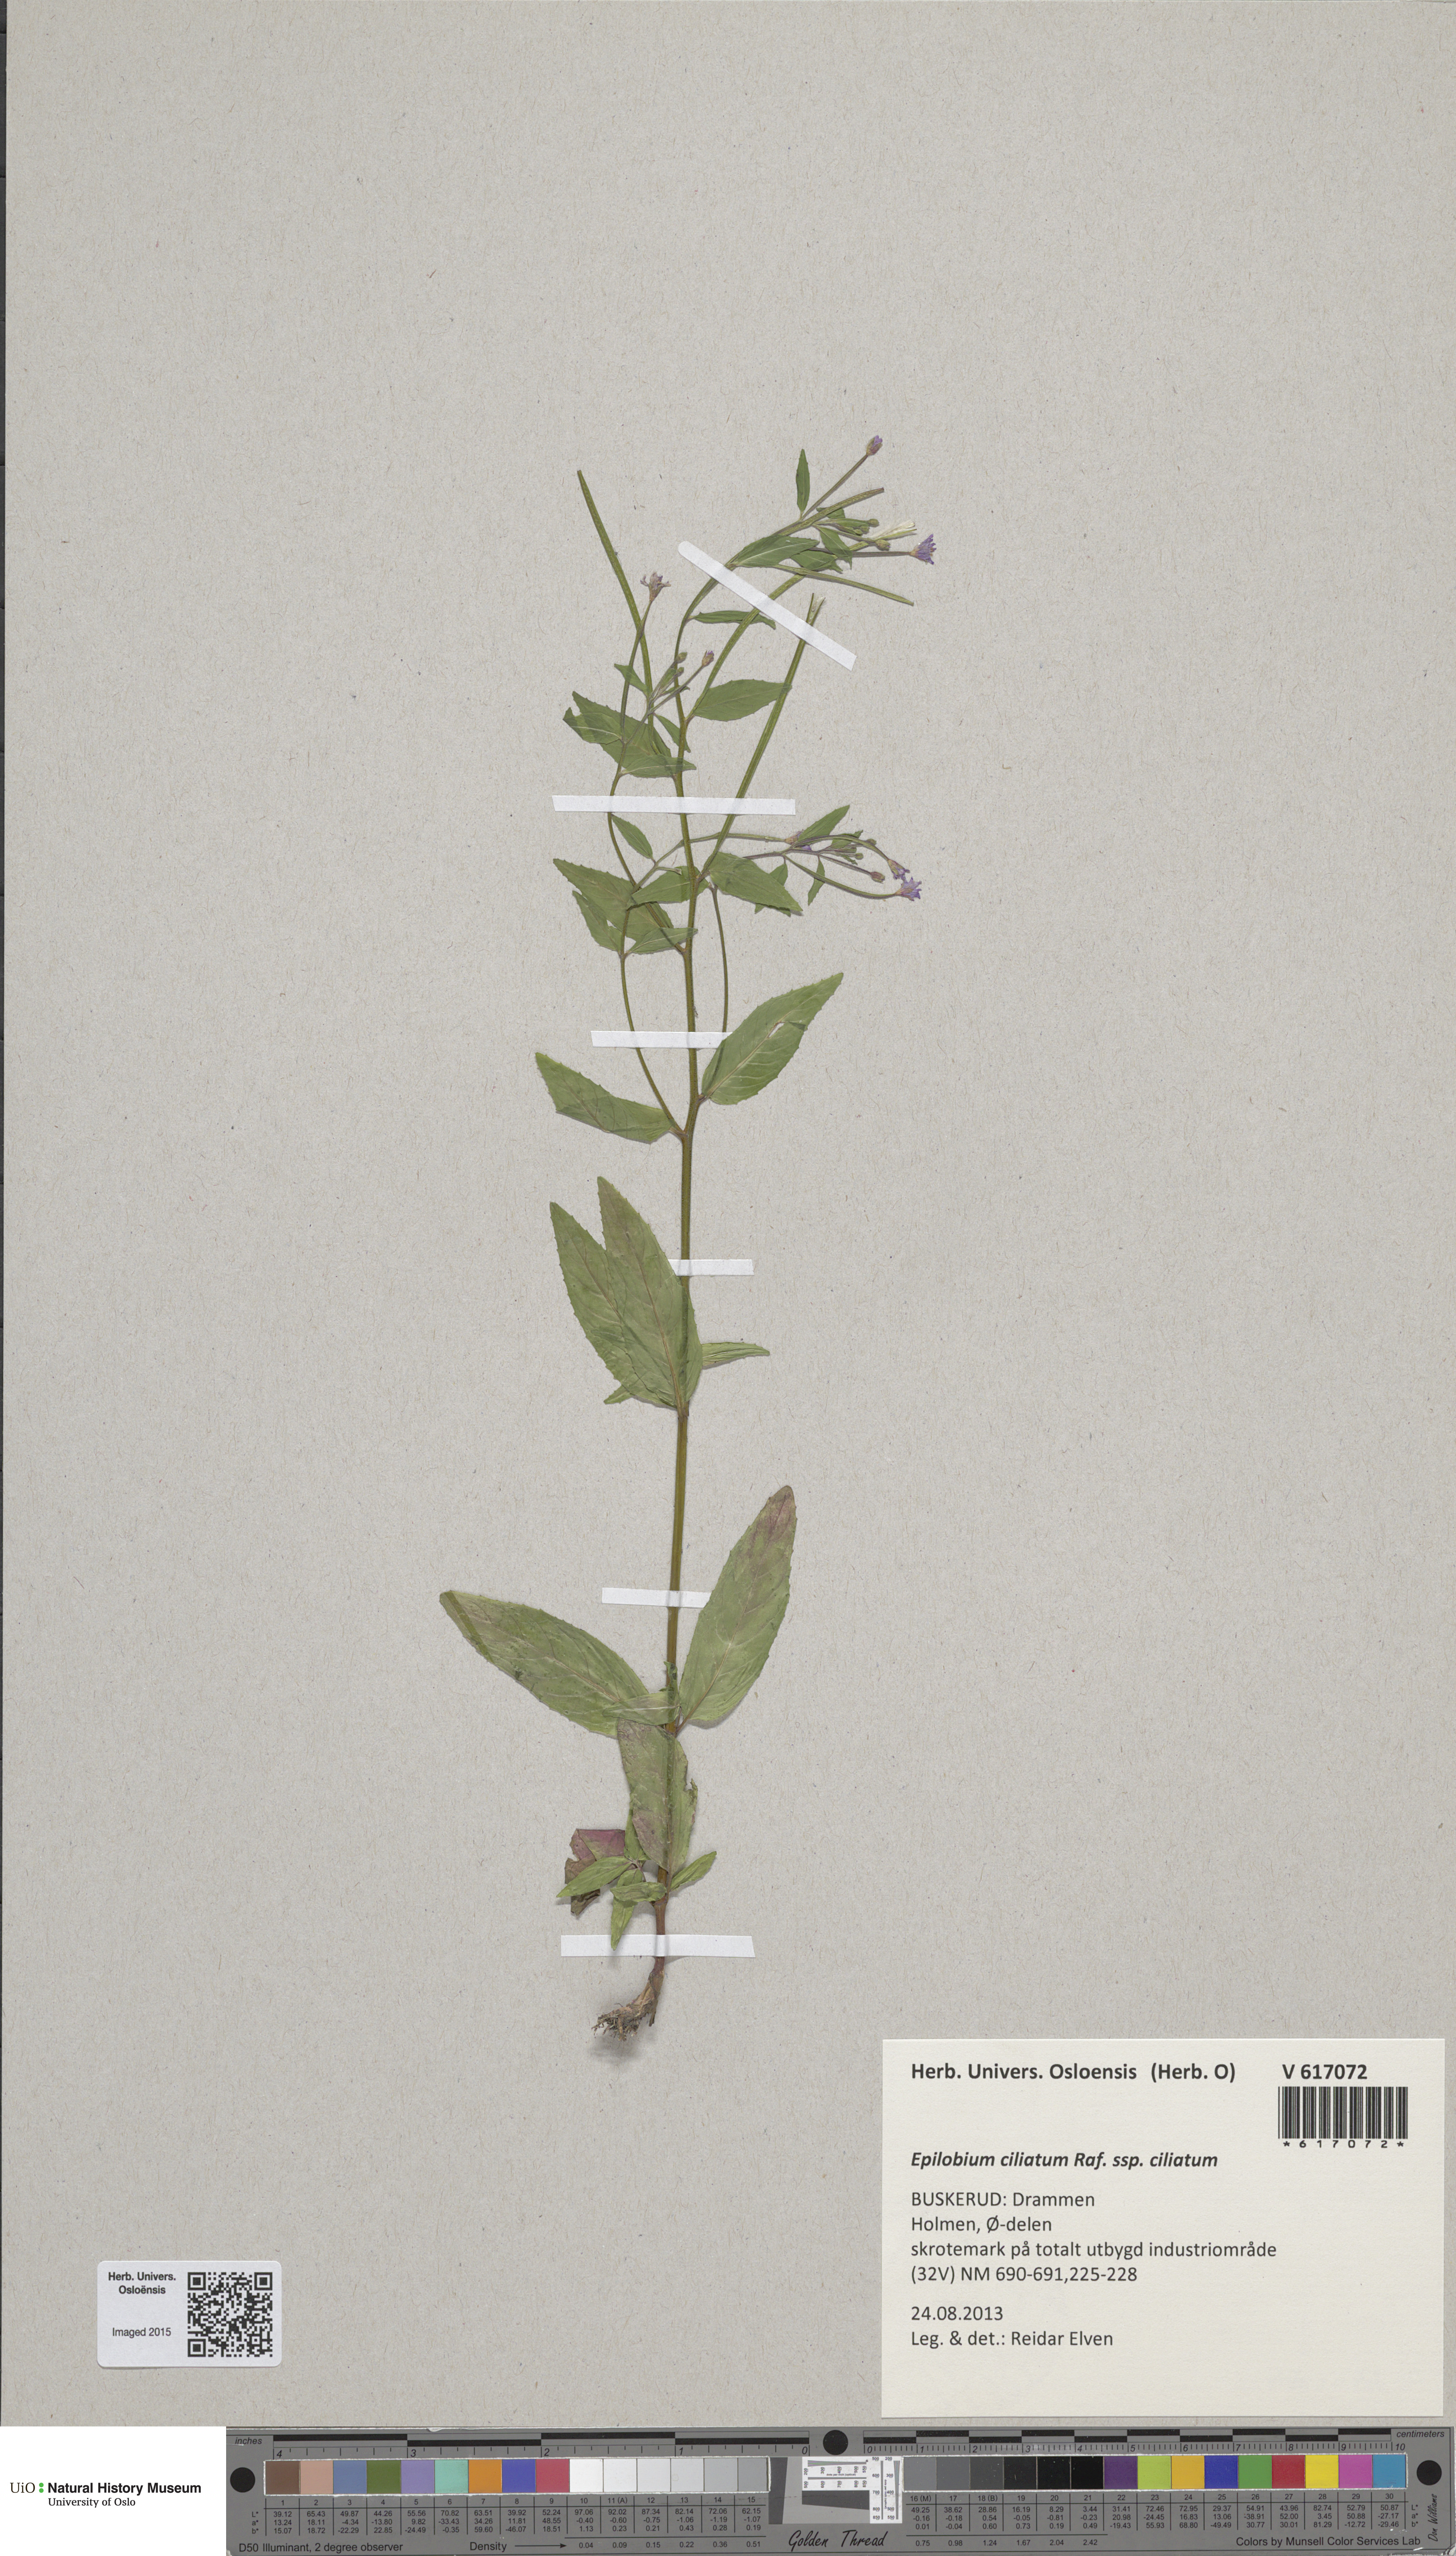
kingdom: Plantae
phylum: Tracheophyta
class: Magnoliopsida
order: Myrtales
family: Onagraceae
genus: Epilobium
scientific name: Epilobium ciliatum
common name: American willowherb
